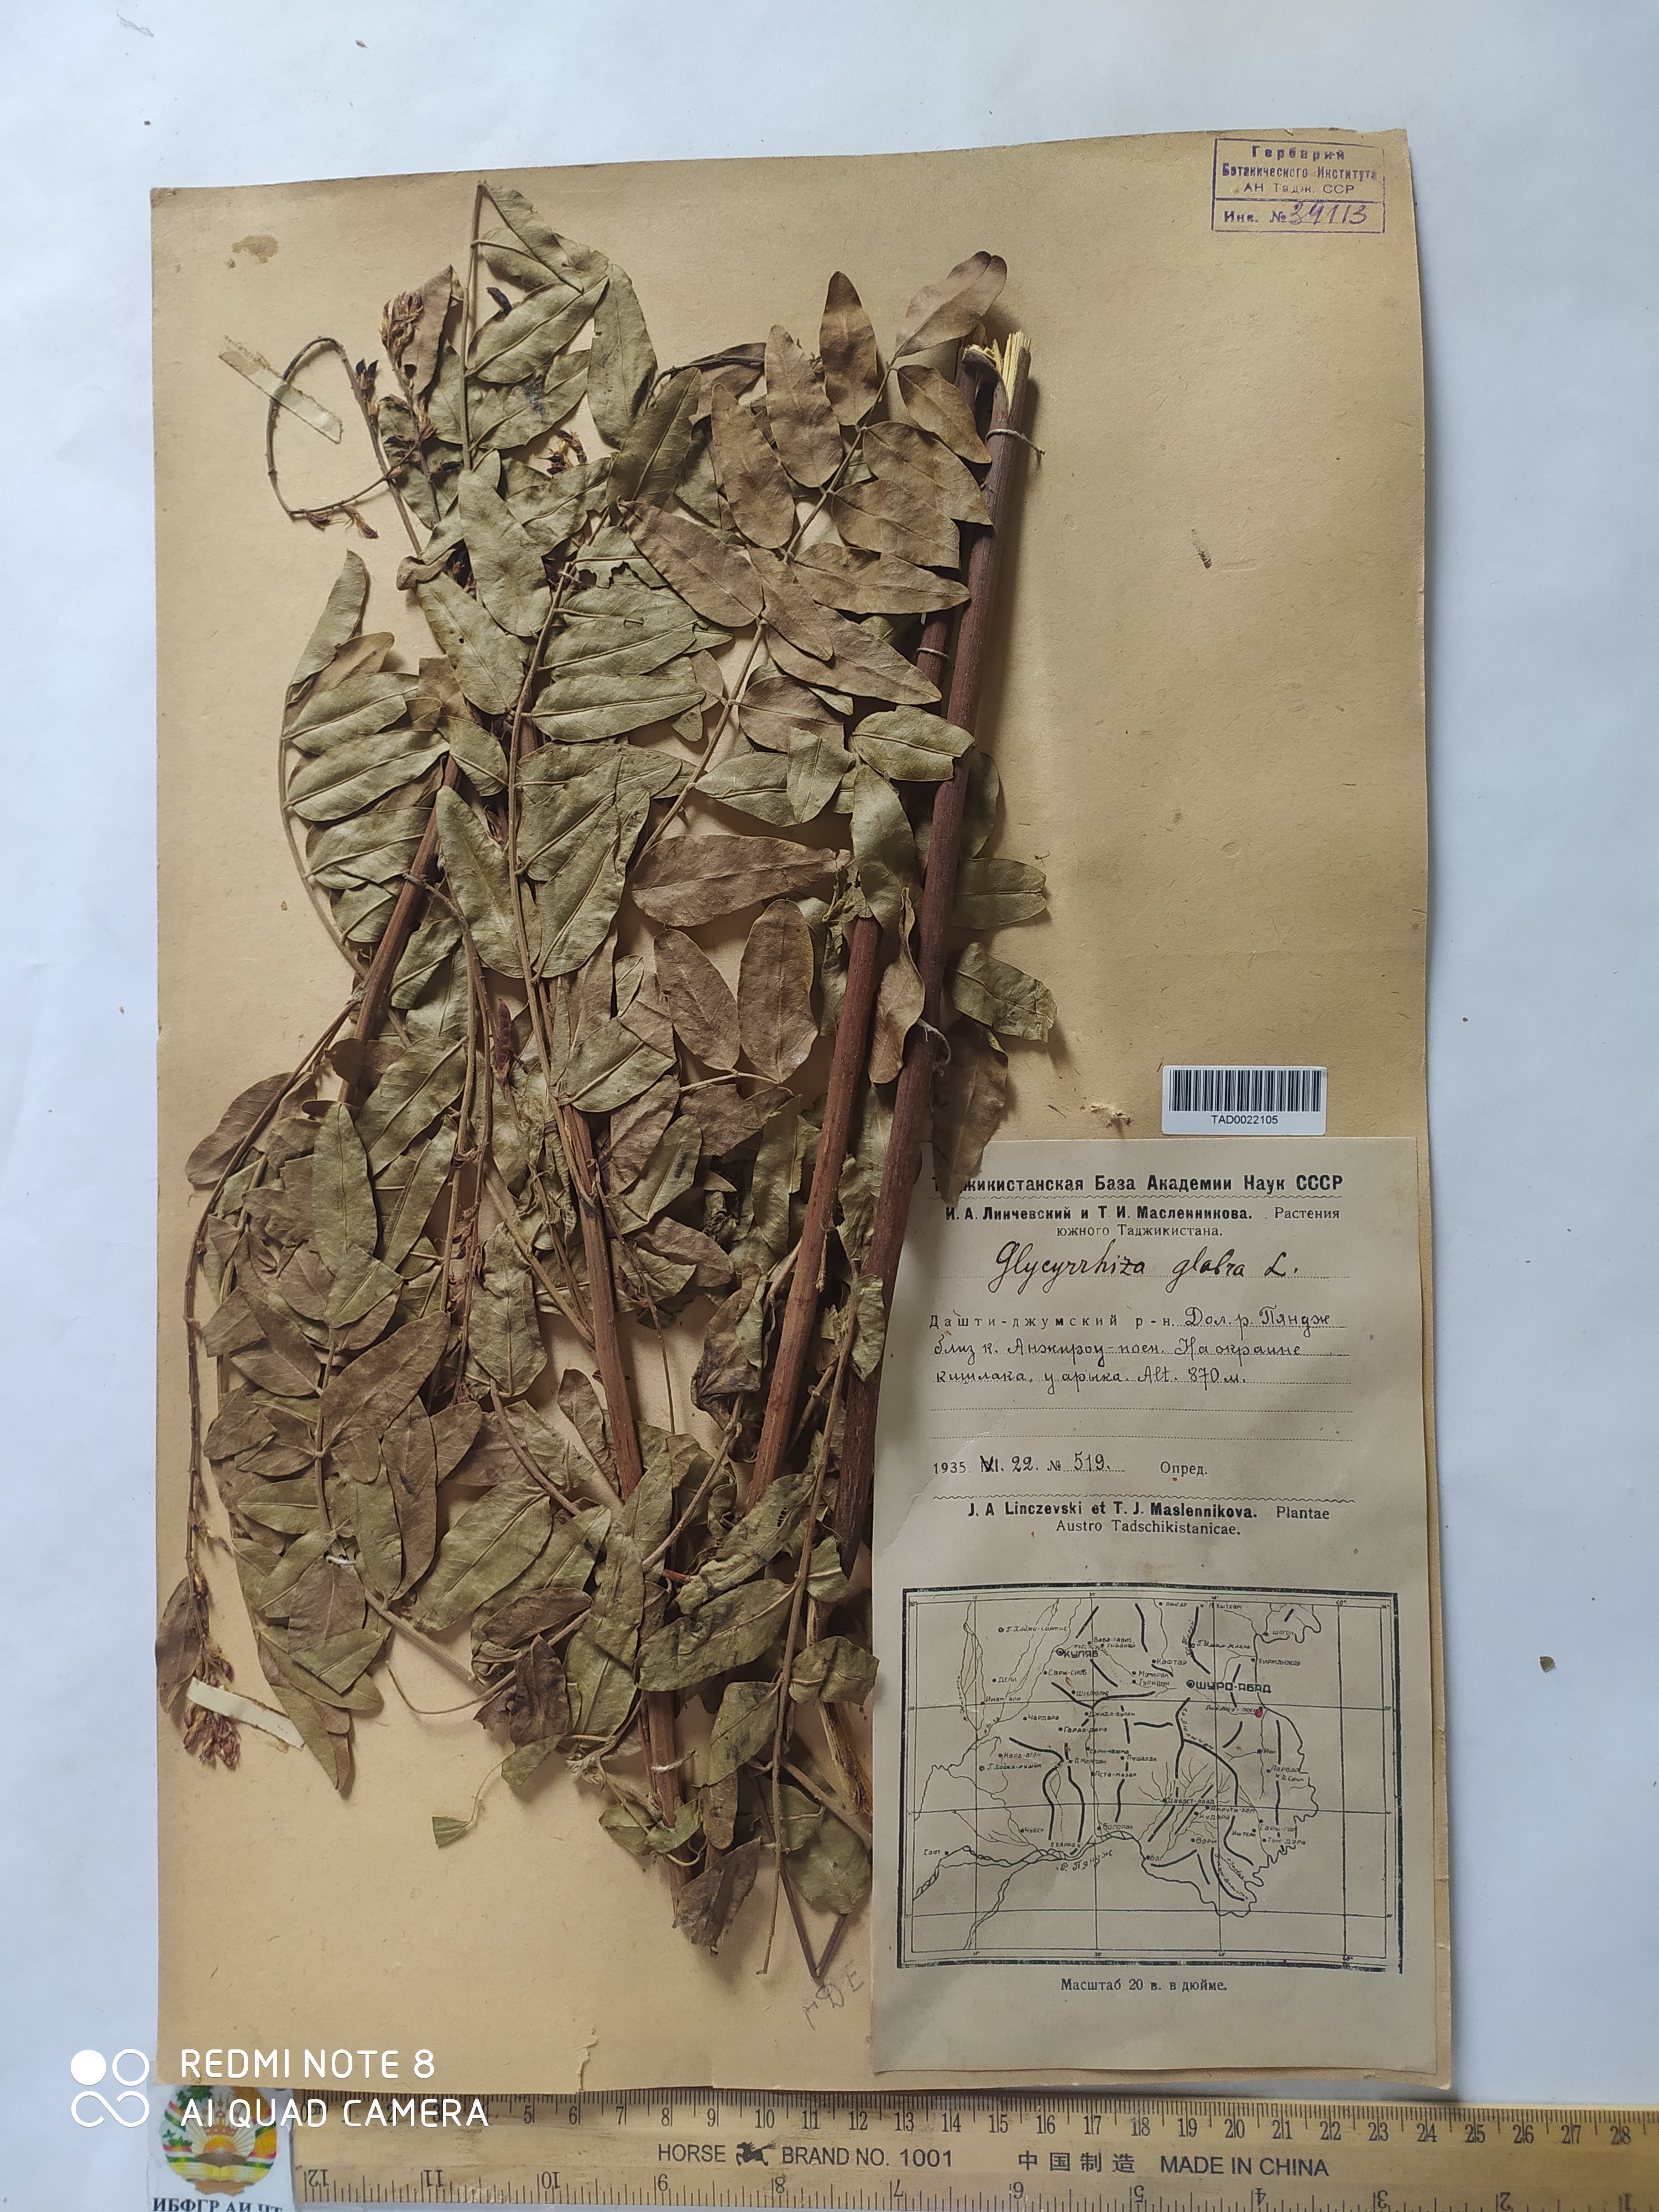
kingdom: Plantae
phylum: Tracheophyta
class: Magnoliopsida
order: Fabales
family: Fabaceae
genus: Glycyrrhiza
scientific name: Glycyrrhiza glabra
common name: Liquorice
